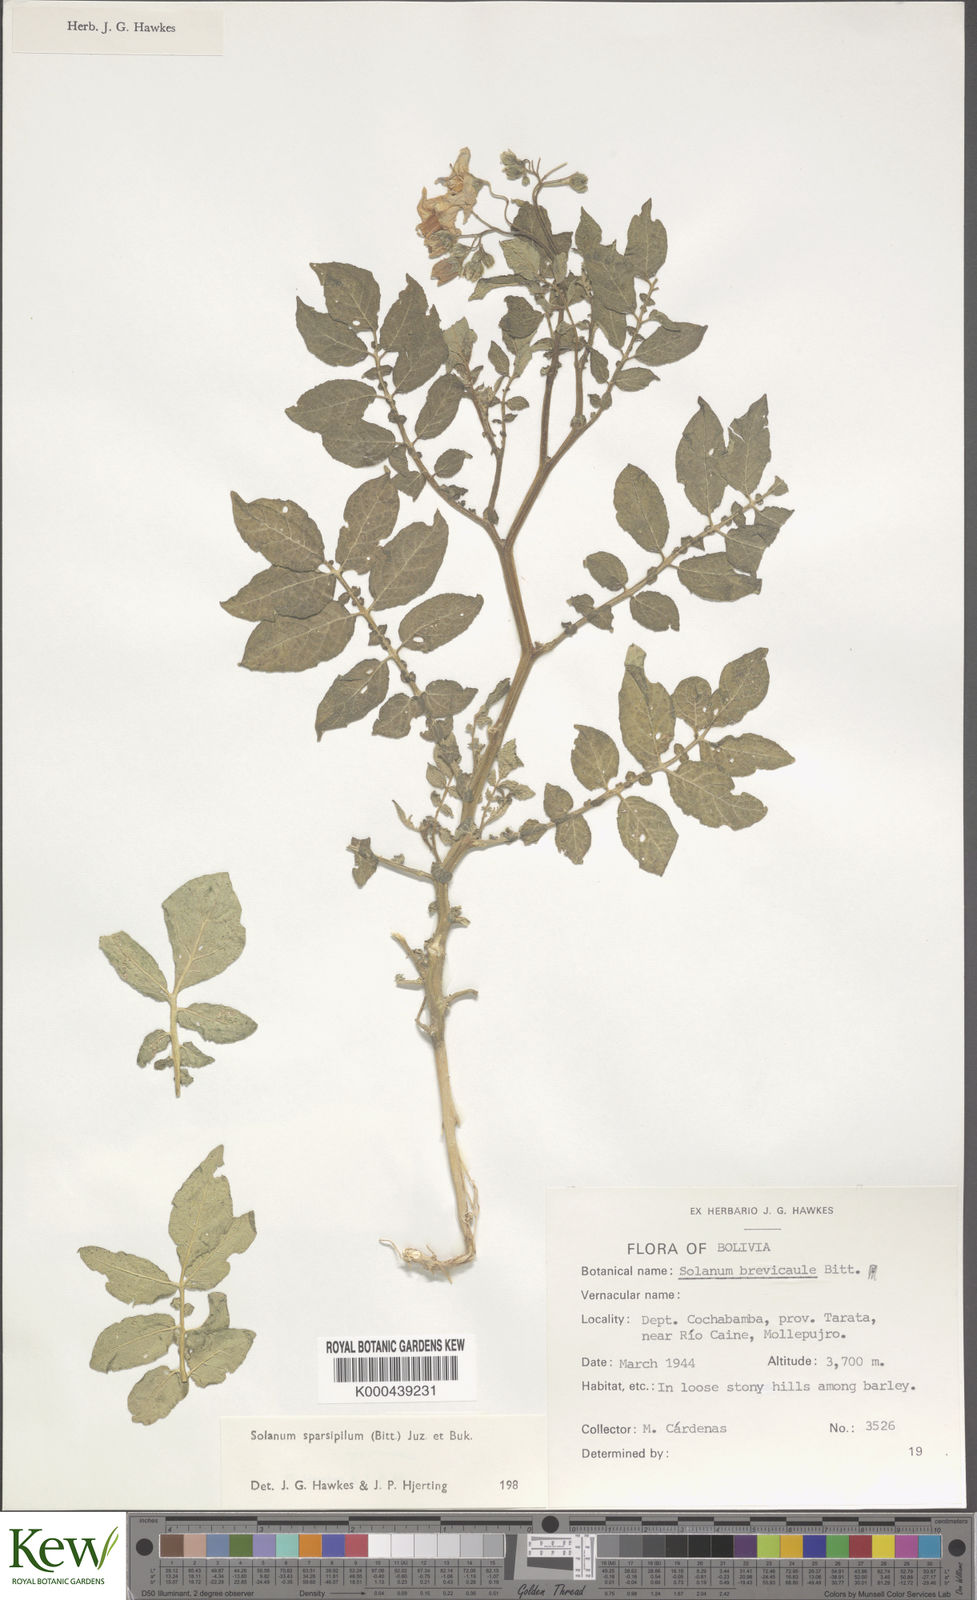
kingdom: Plantae
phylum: Tracheophyta
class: Magnoliopsida
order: Solanales
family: Solanaceae
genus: Solanum
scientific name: Solanum brevicaule
